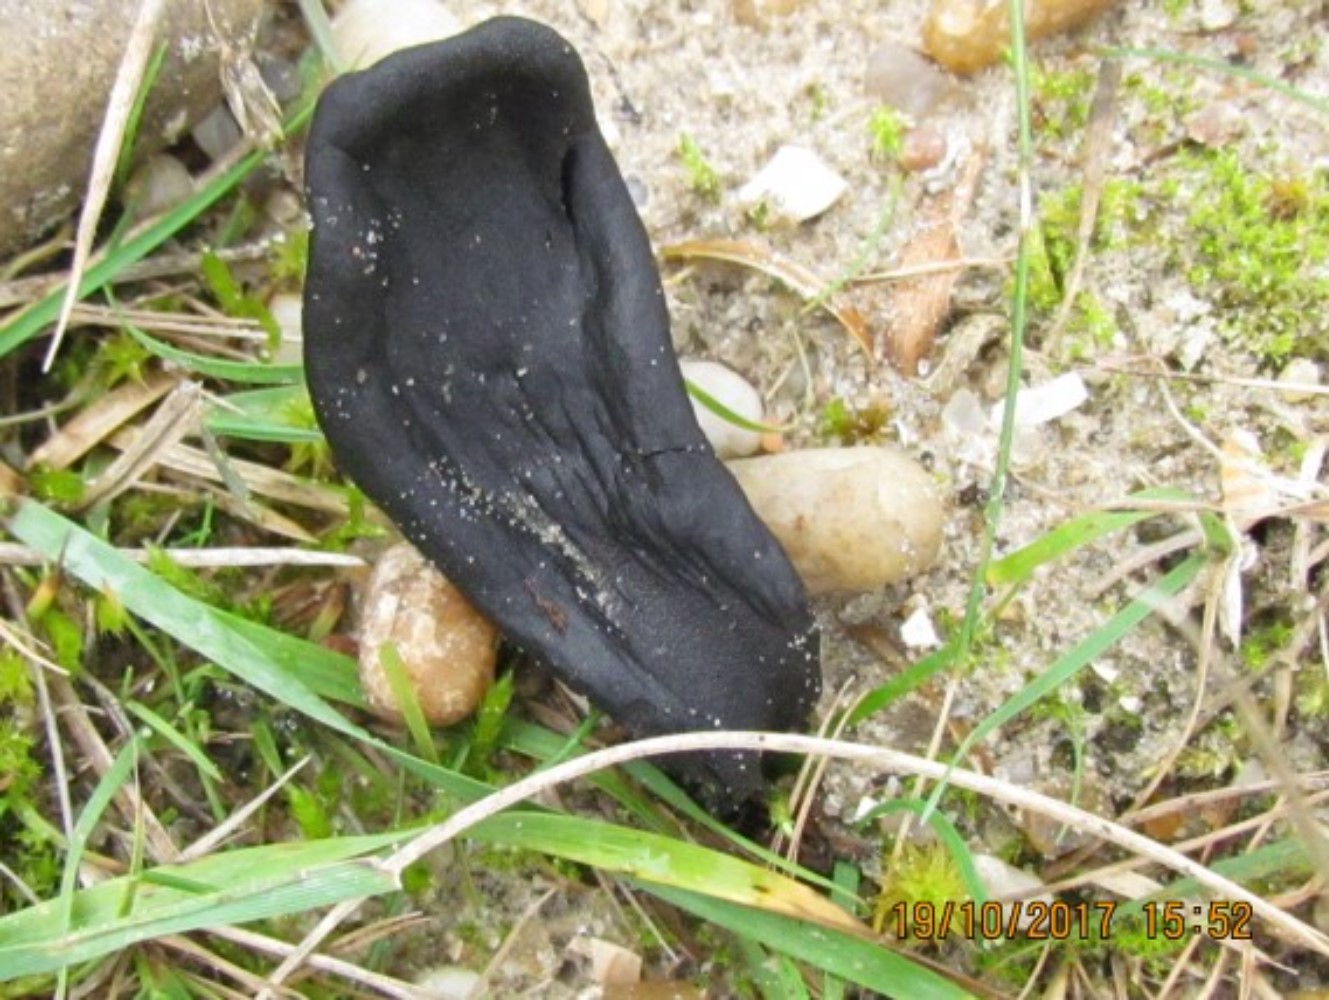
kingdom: Fungi
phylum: Ascomycota
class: Geoglossomycetes
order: Geoglossales
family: Geoglossaceae
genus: Geoglossum
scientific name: Geoglossum cookeianum
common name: bred jordtunge
